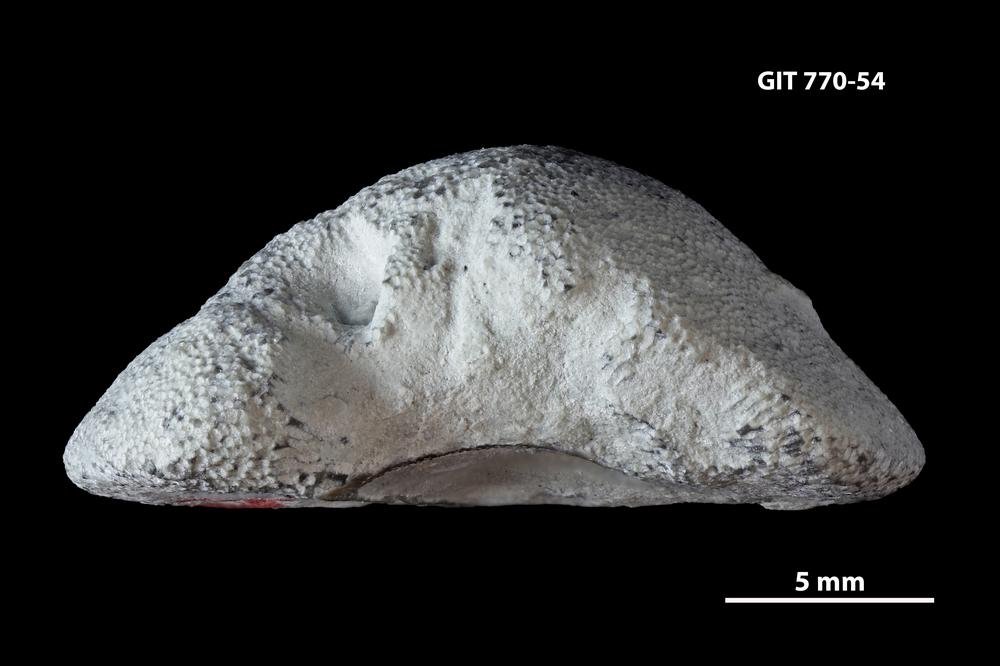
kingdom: Animalia
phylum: Bryozoa
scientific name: Bryozoa
